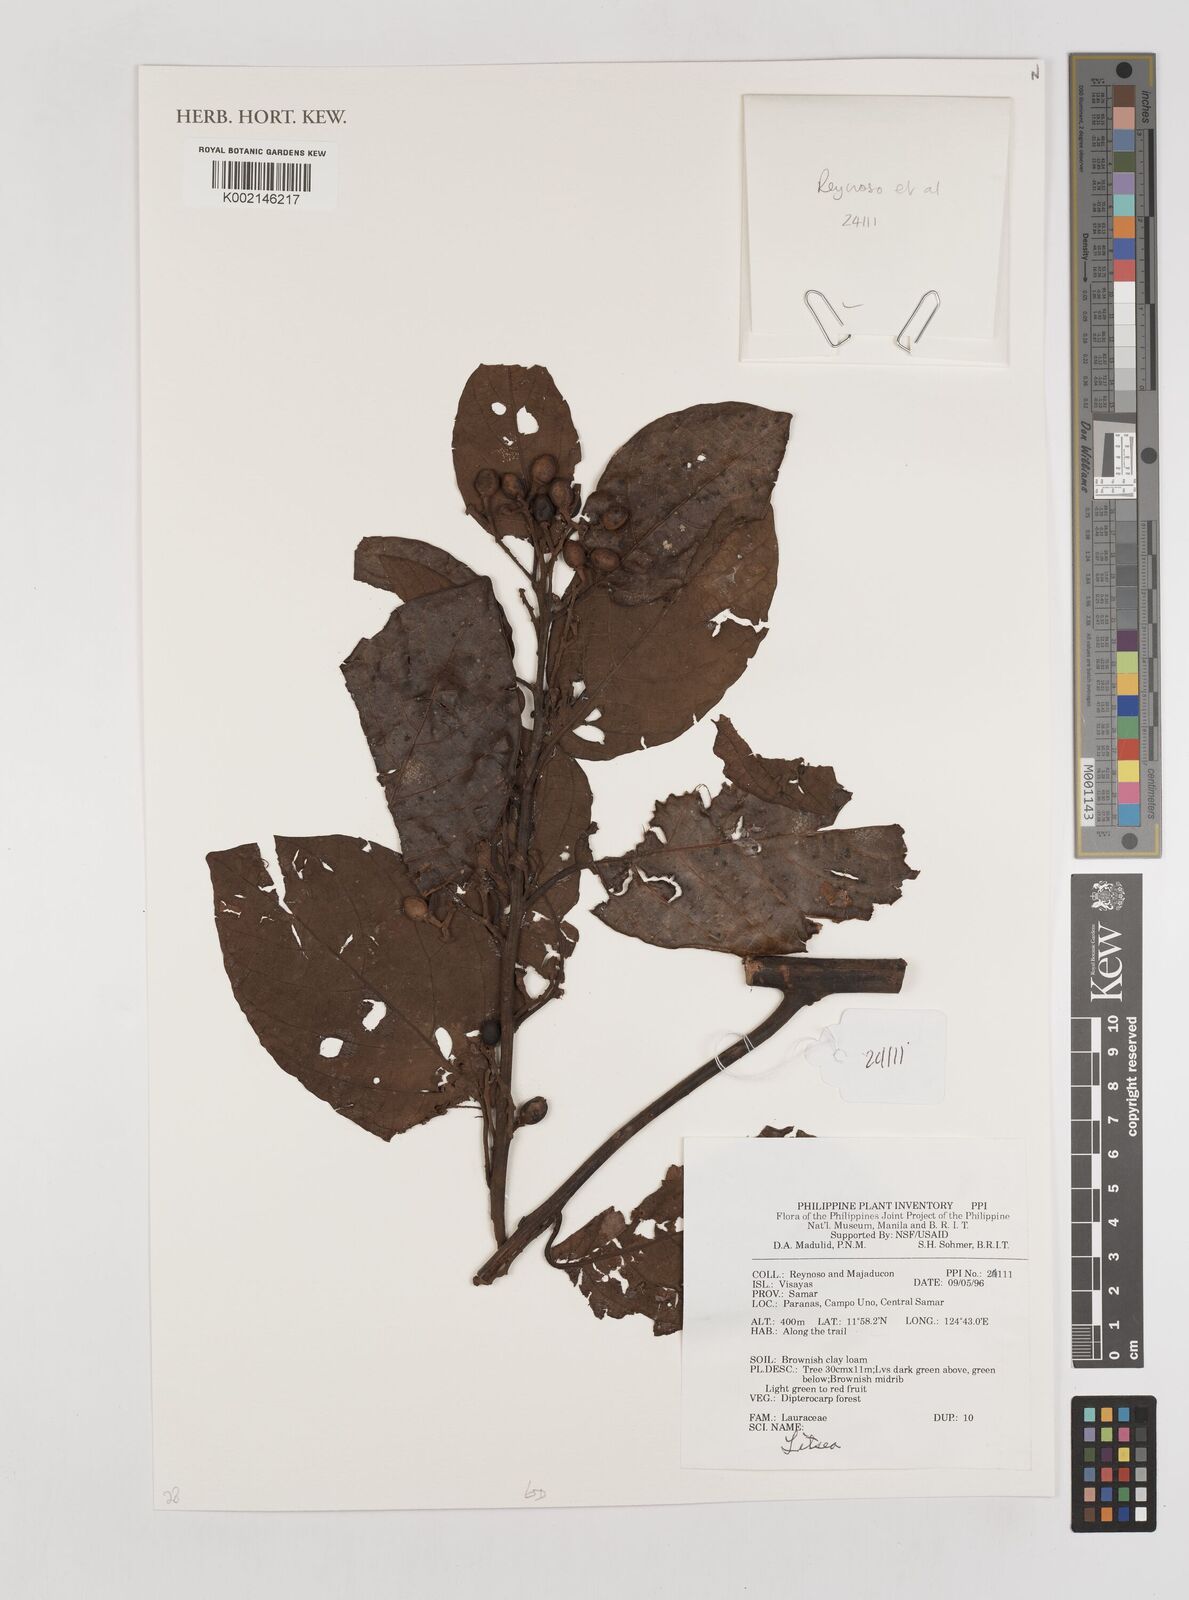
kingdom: Plantae
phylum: Tracheophyta
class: Magnoliopsida
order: Laurales
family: Lauraceae
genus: Litsea
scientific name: Litsea
